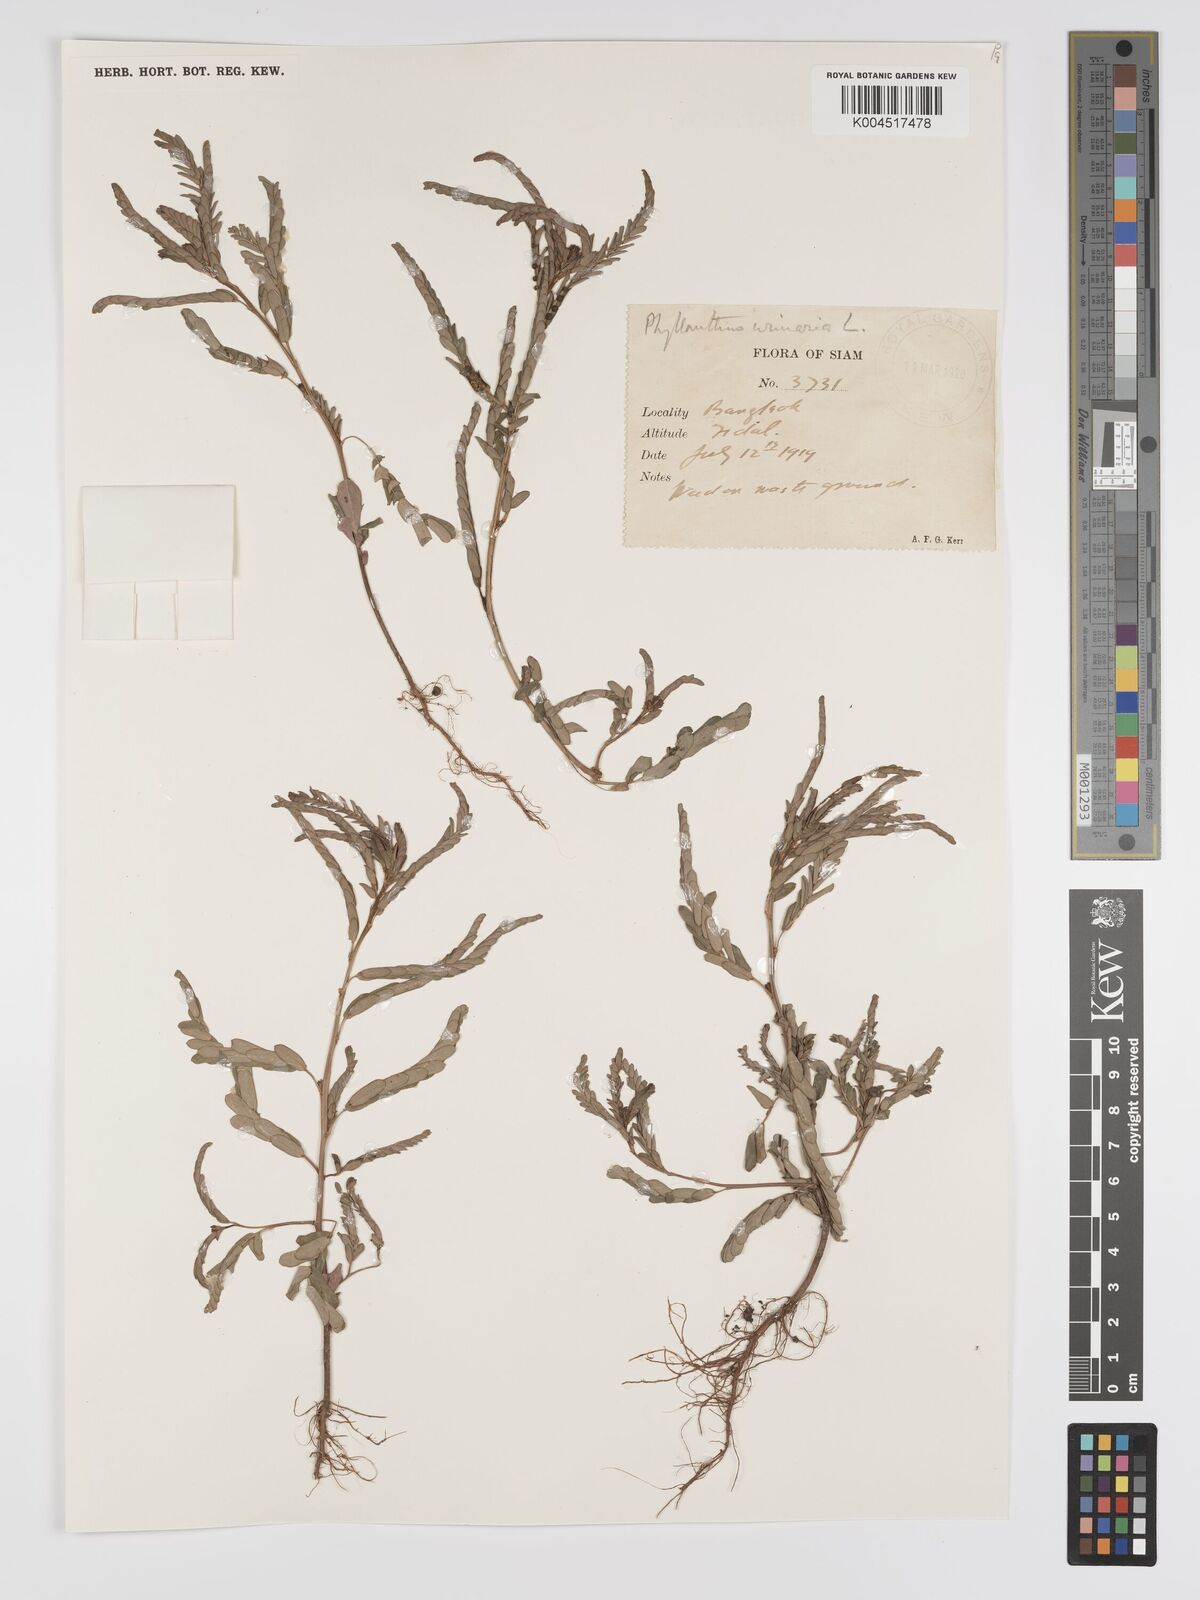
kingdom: Plantae
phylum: Tracheophyta
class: Magnoliopsida
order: Malpighiales
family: Phyllanthaceae
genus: Phyllanthus
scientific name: Phyllanthus urinaria
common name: Chamber bitter
